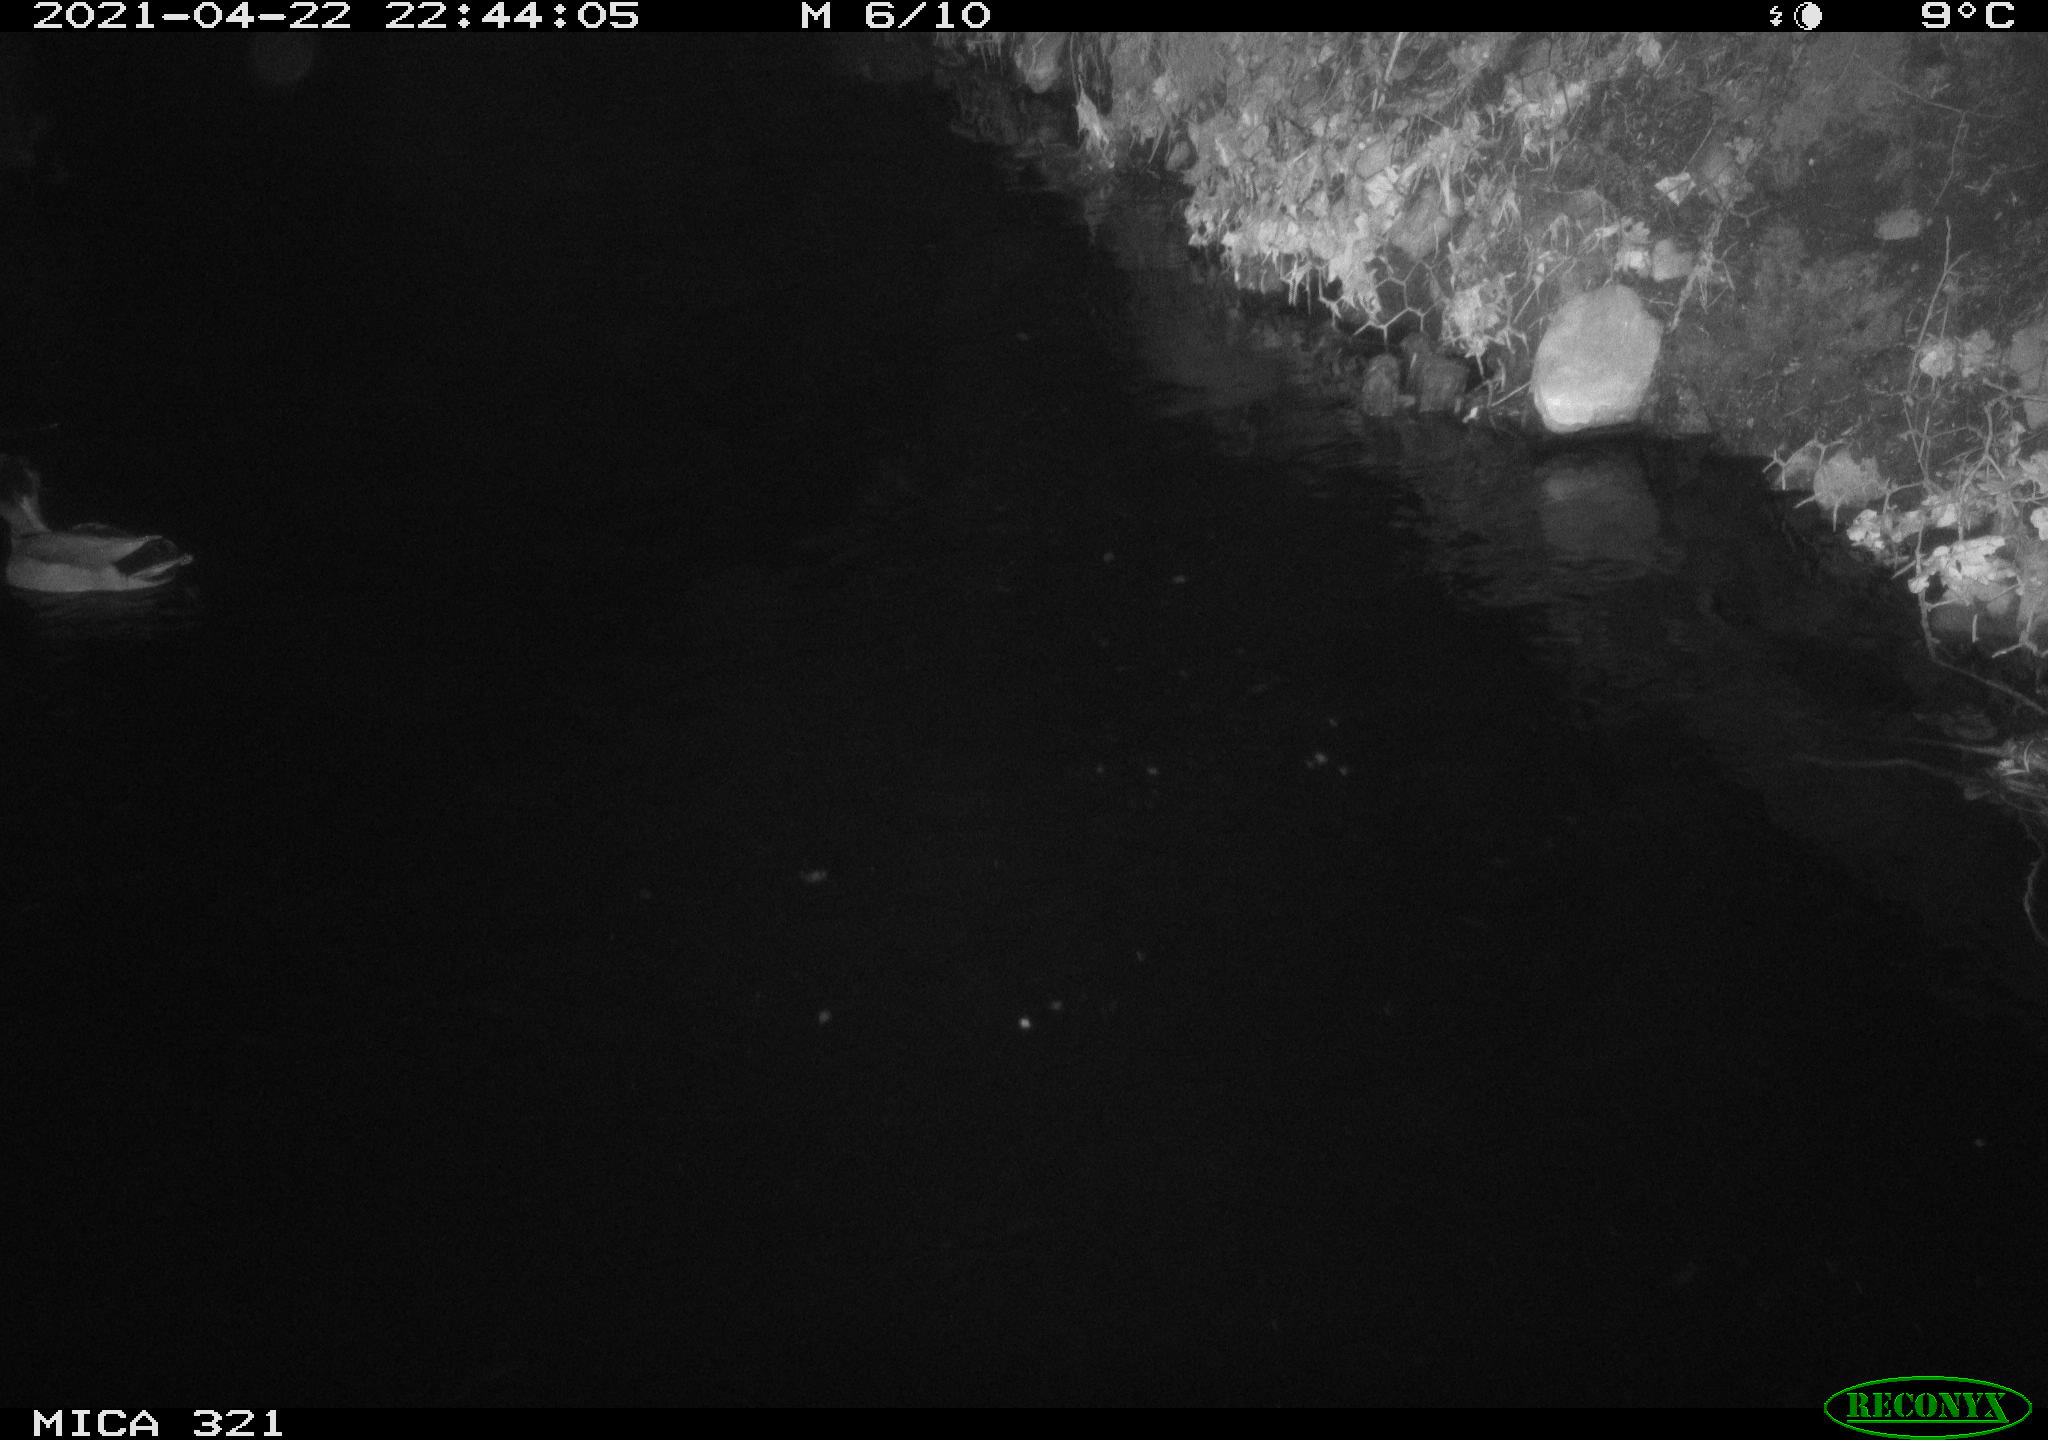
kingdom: Animalia
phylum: Chordata
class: Aves
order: Anseriformes
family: Anatidae
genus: Anas
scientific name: Anas
